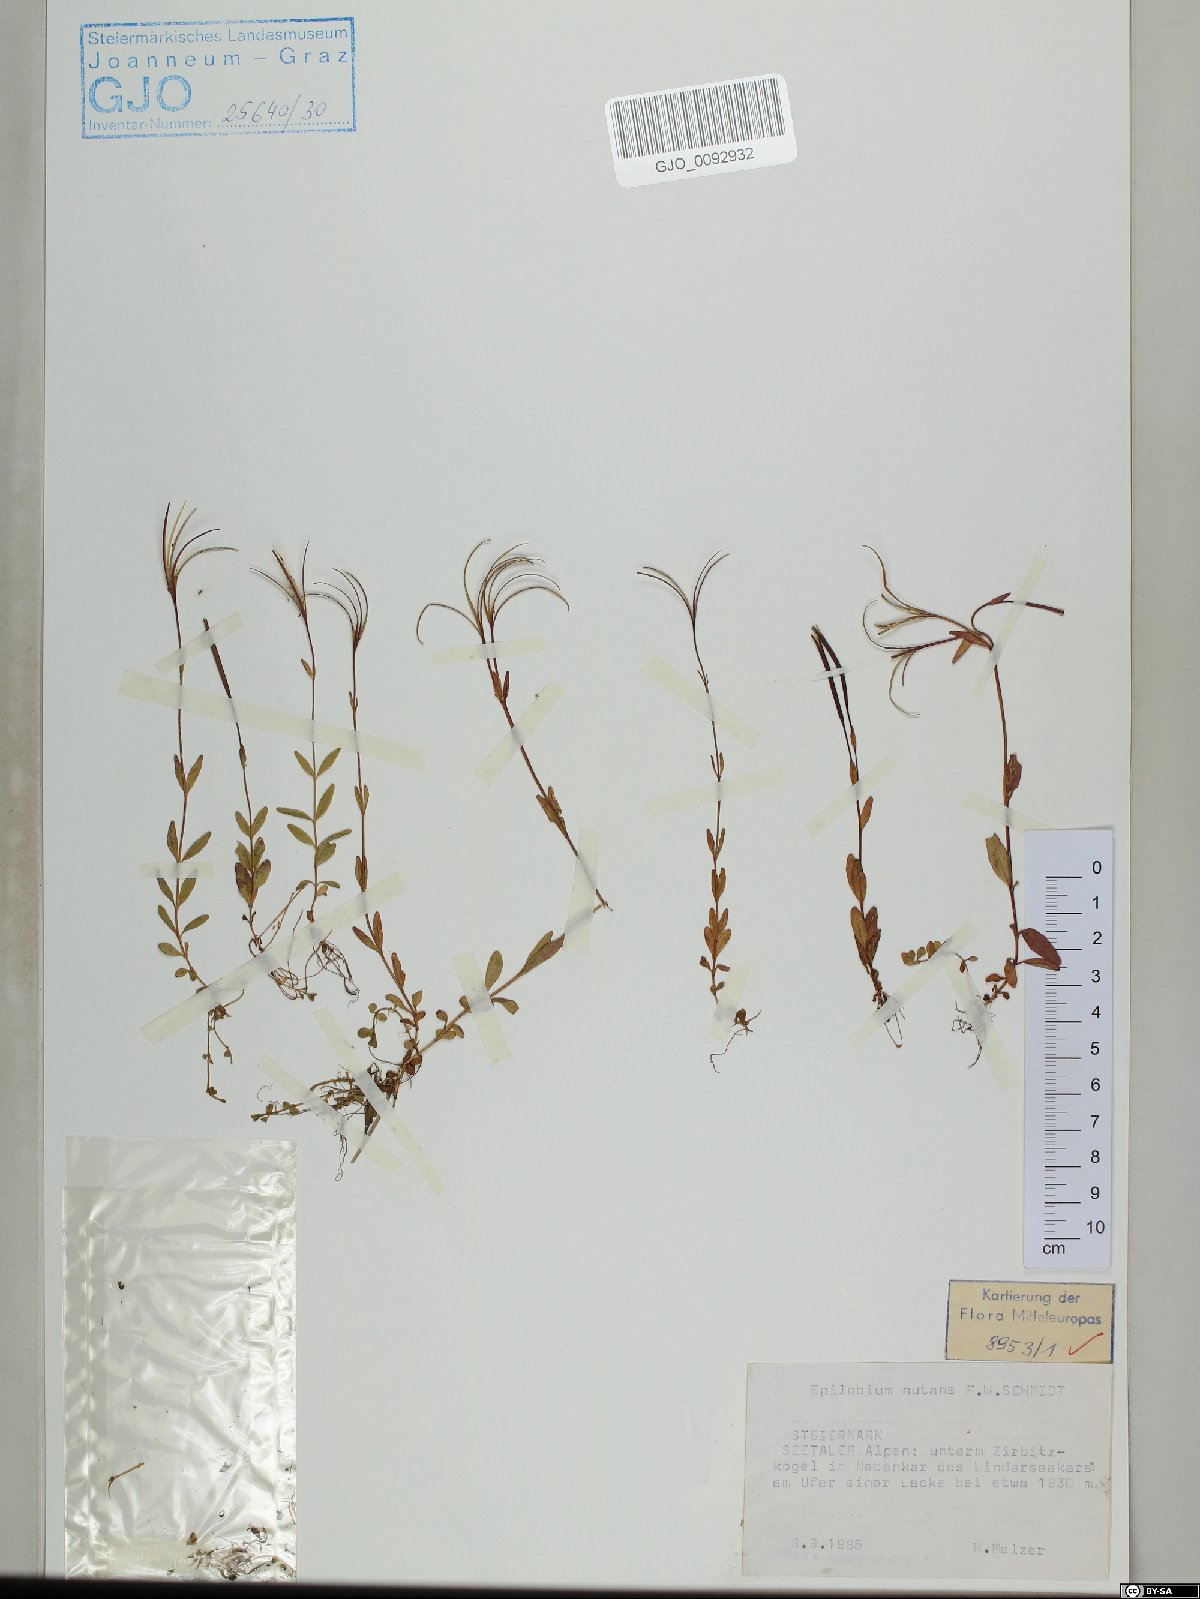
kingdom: Plantae
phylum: Tracheophyta
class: Magnoliopsida
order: Myrtales
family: Onagraceae
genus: Epilobium
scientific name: Epilobium nutans
